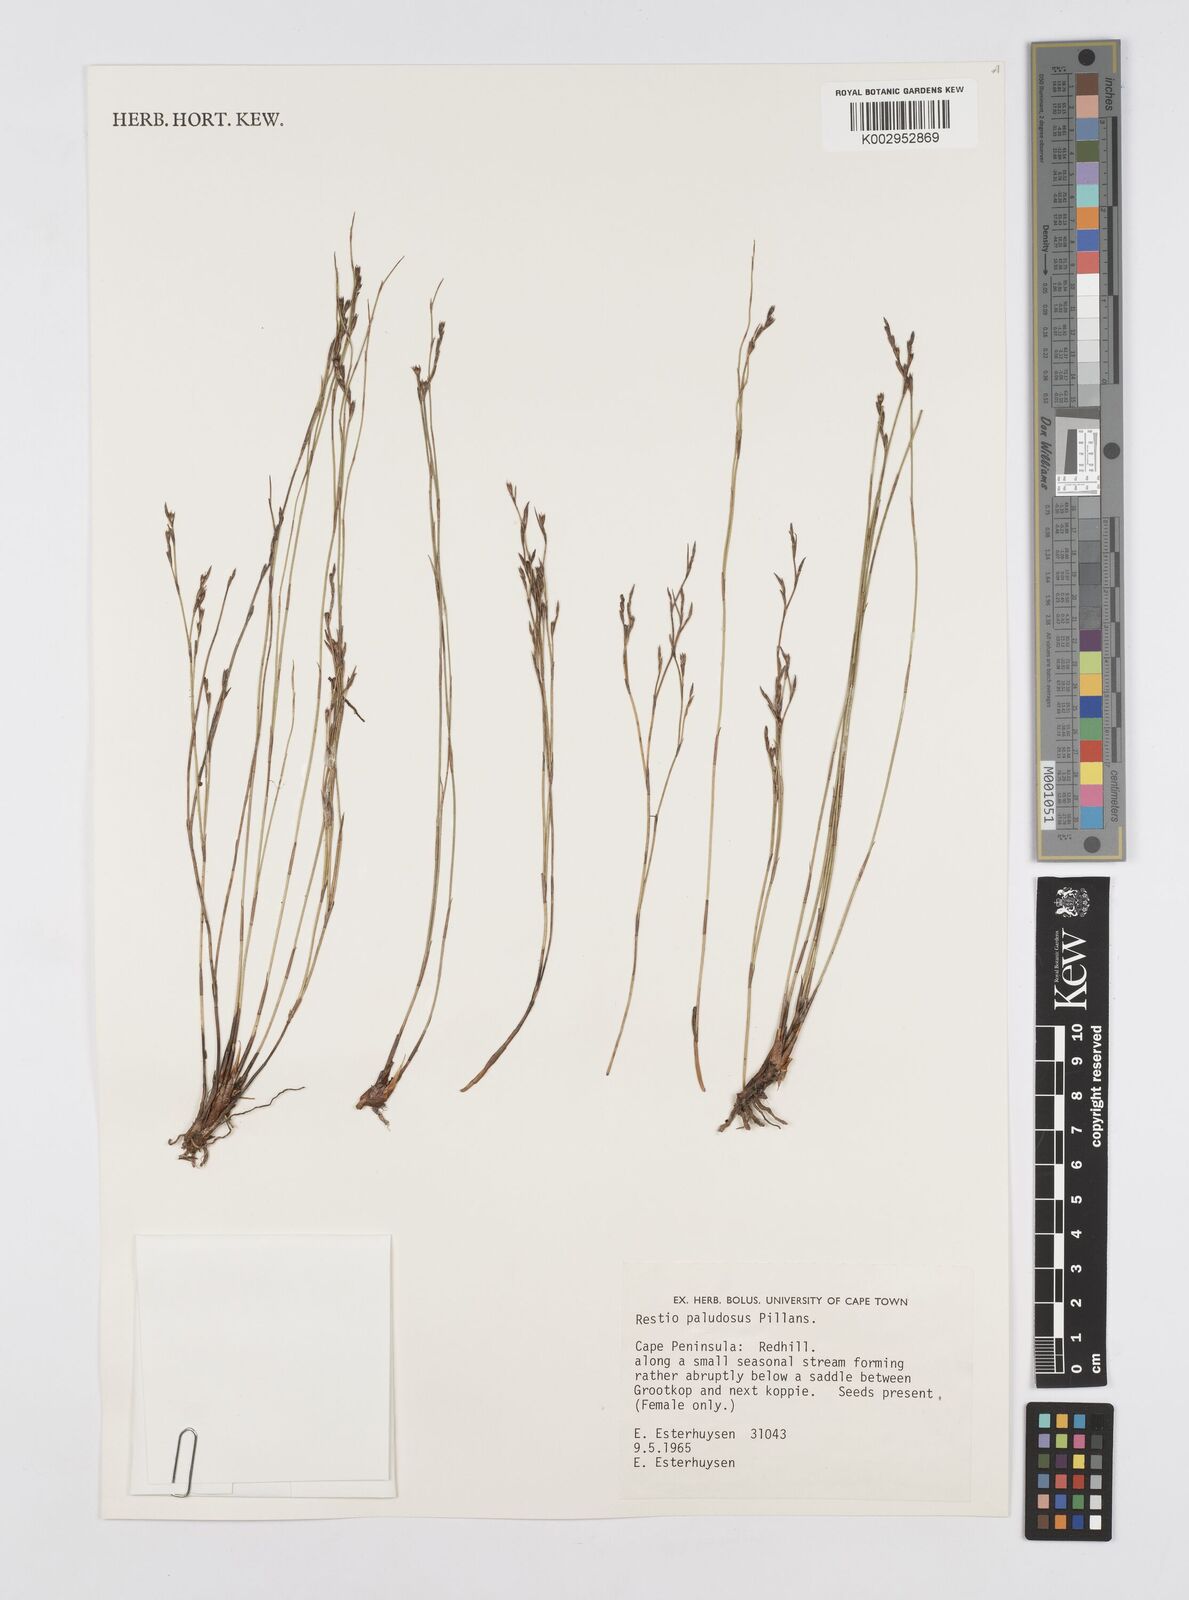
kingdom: Plantae
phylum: Tracheophyta
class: Liliopsida
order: Poales
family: Restionaceae
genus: Restio
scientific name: Restio paludosus
